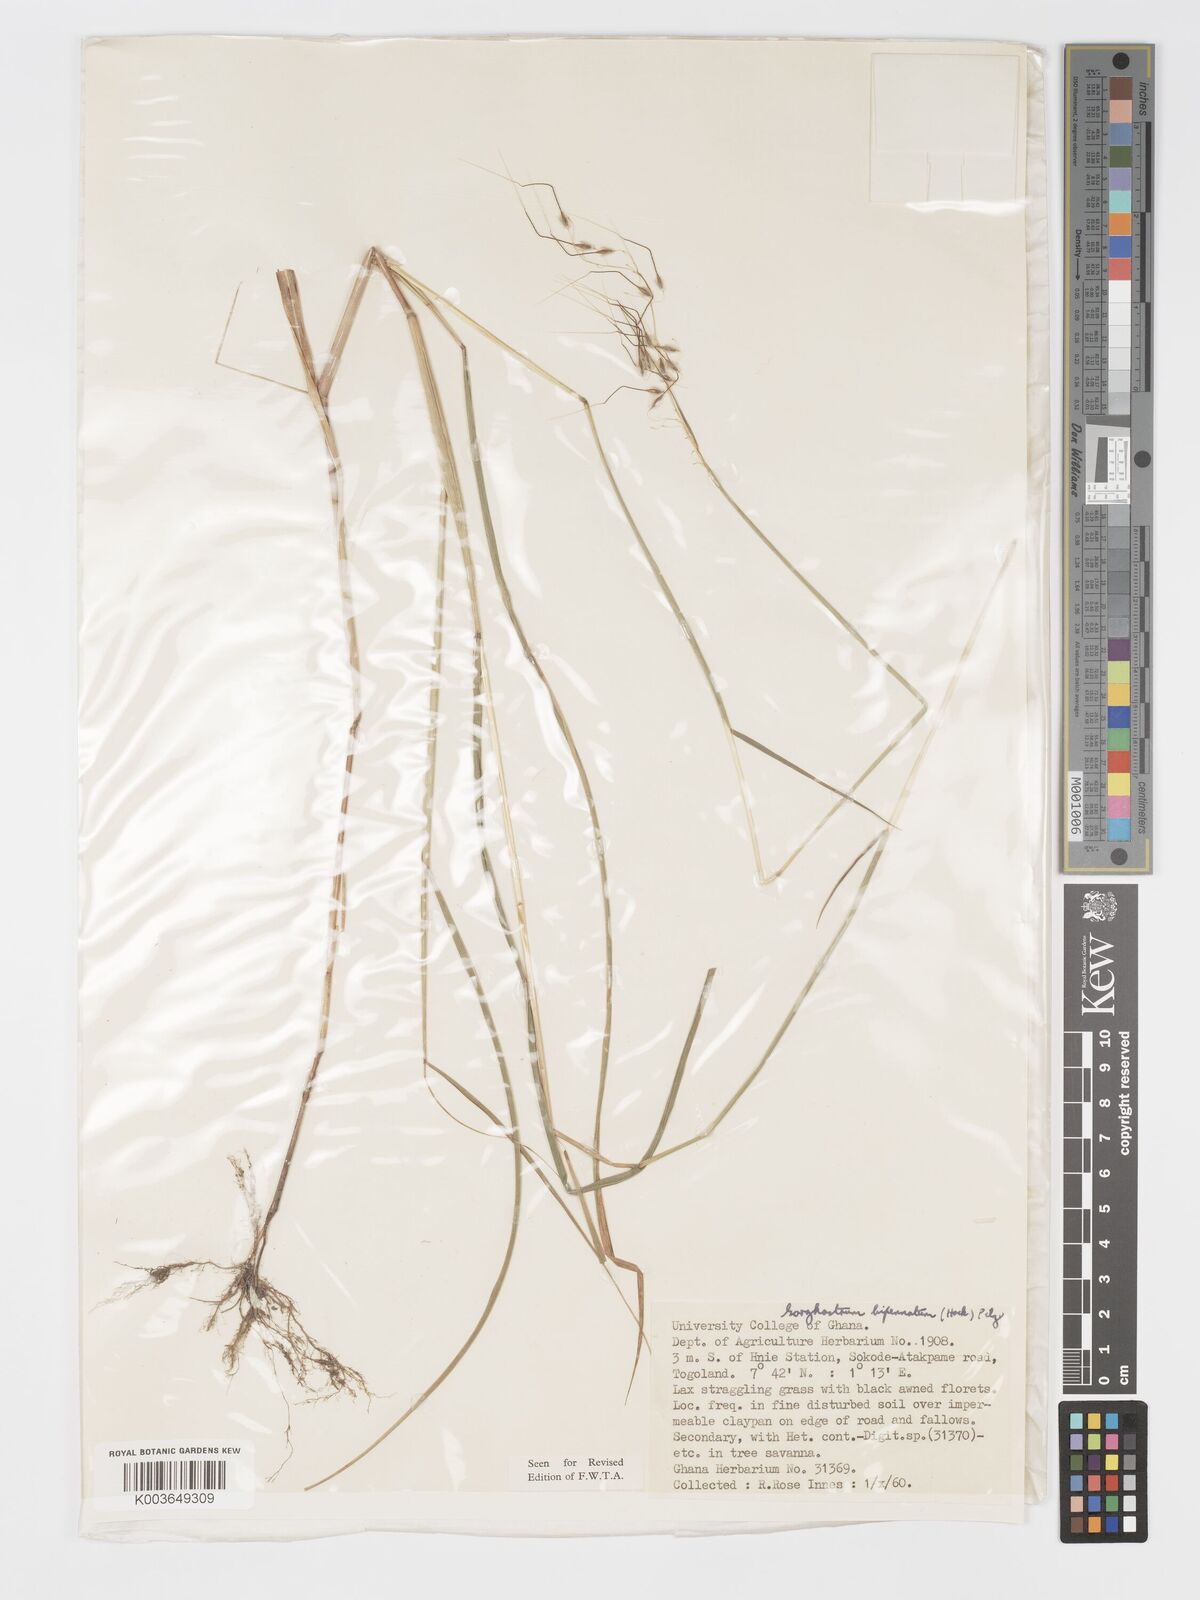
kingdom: Plantae
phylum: Tracheophyta
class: Liliopsida
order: Poales
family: Poaceae
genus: Sorghastrum
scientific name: Sorghastrum incompletum
